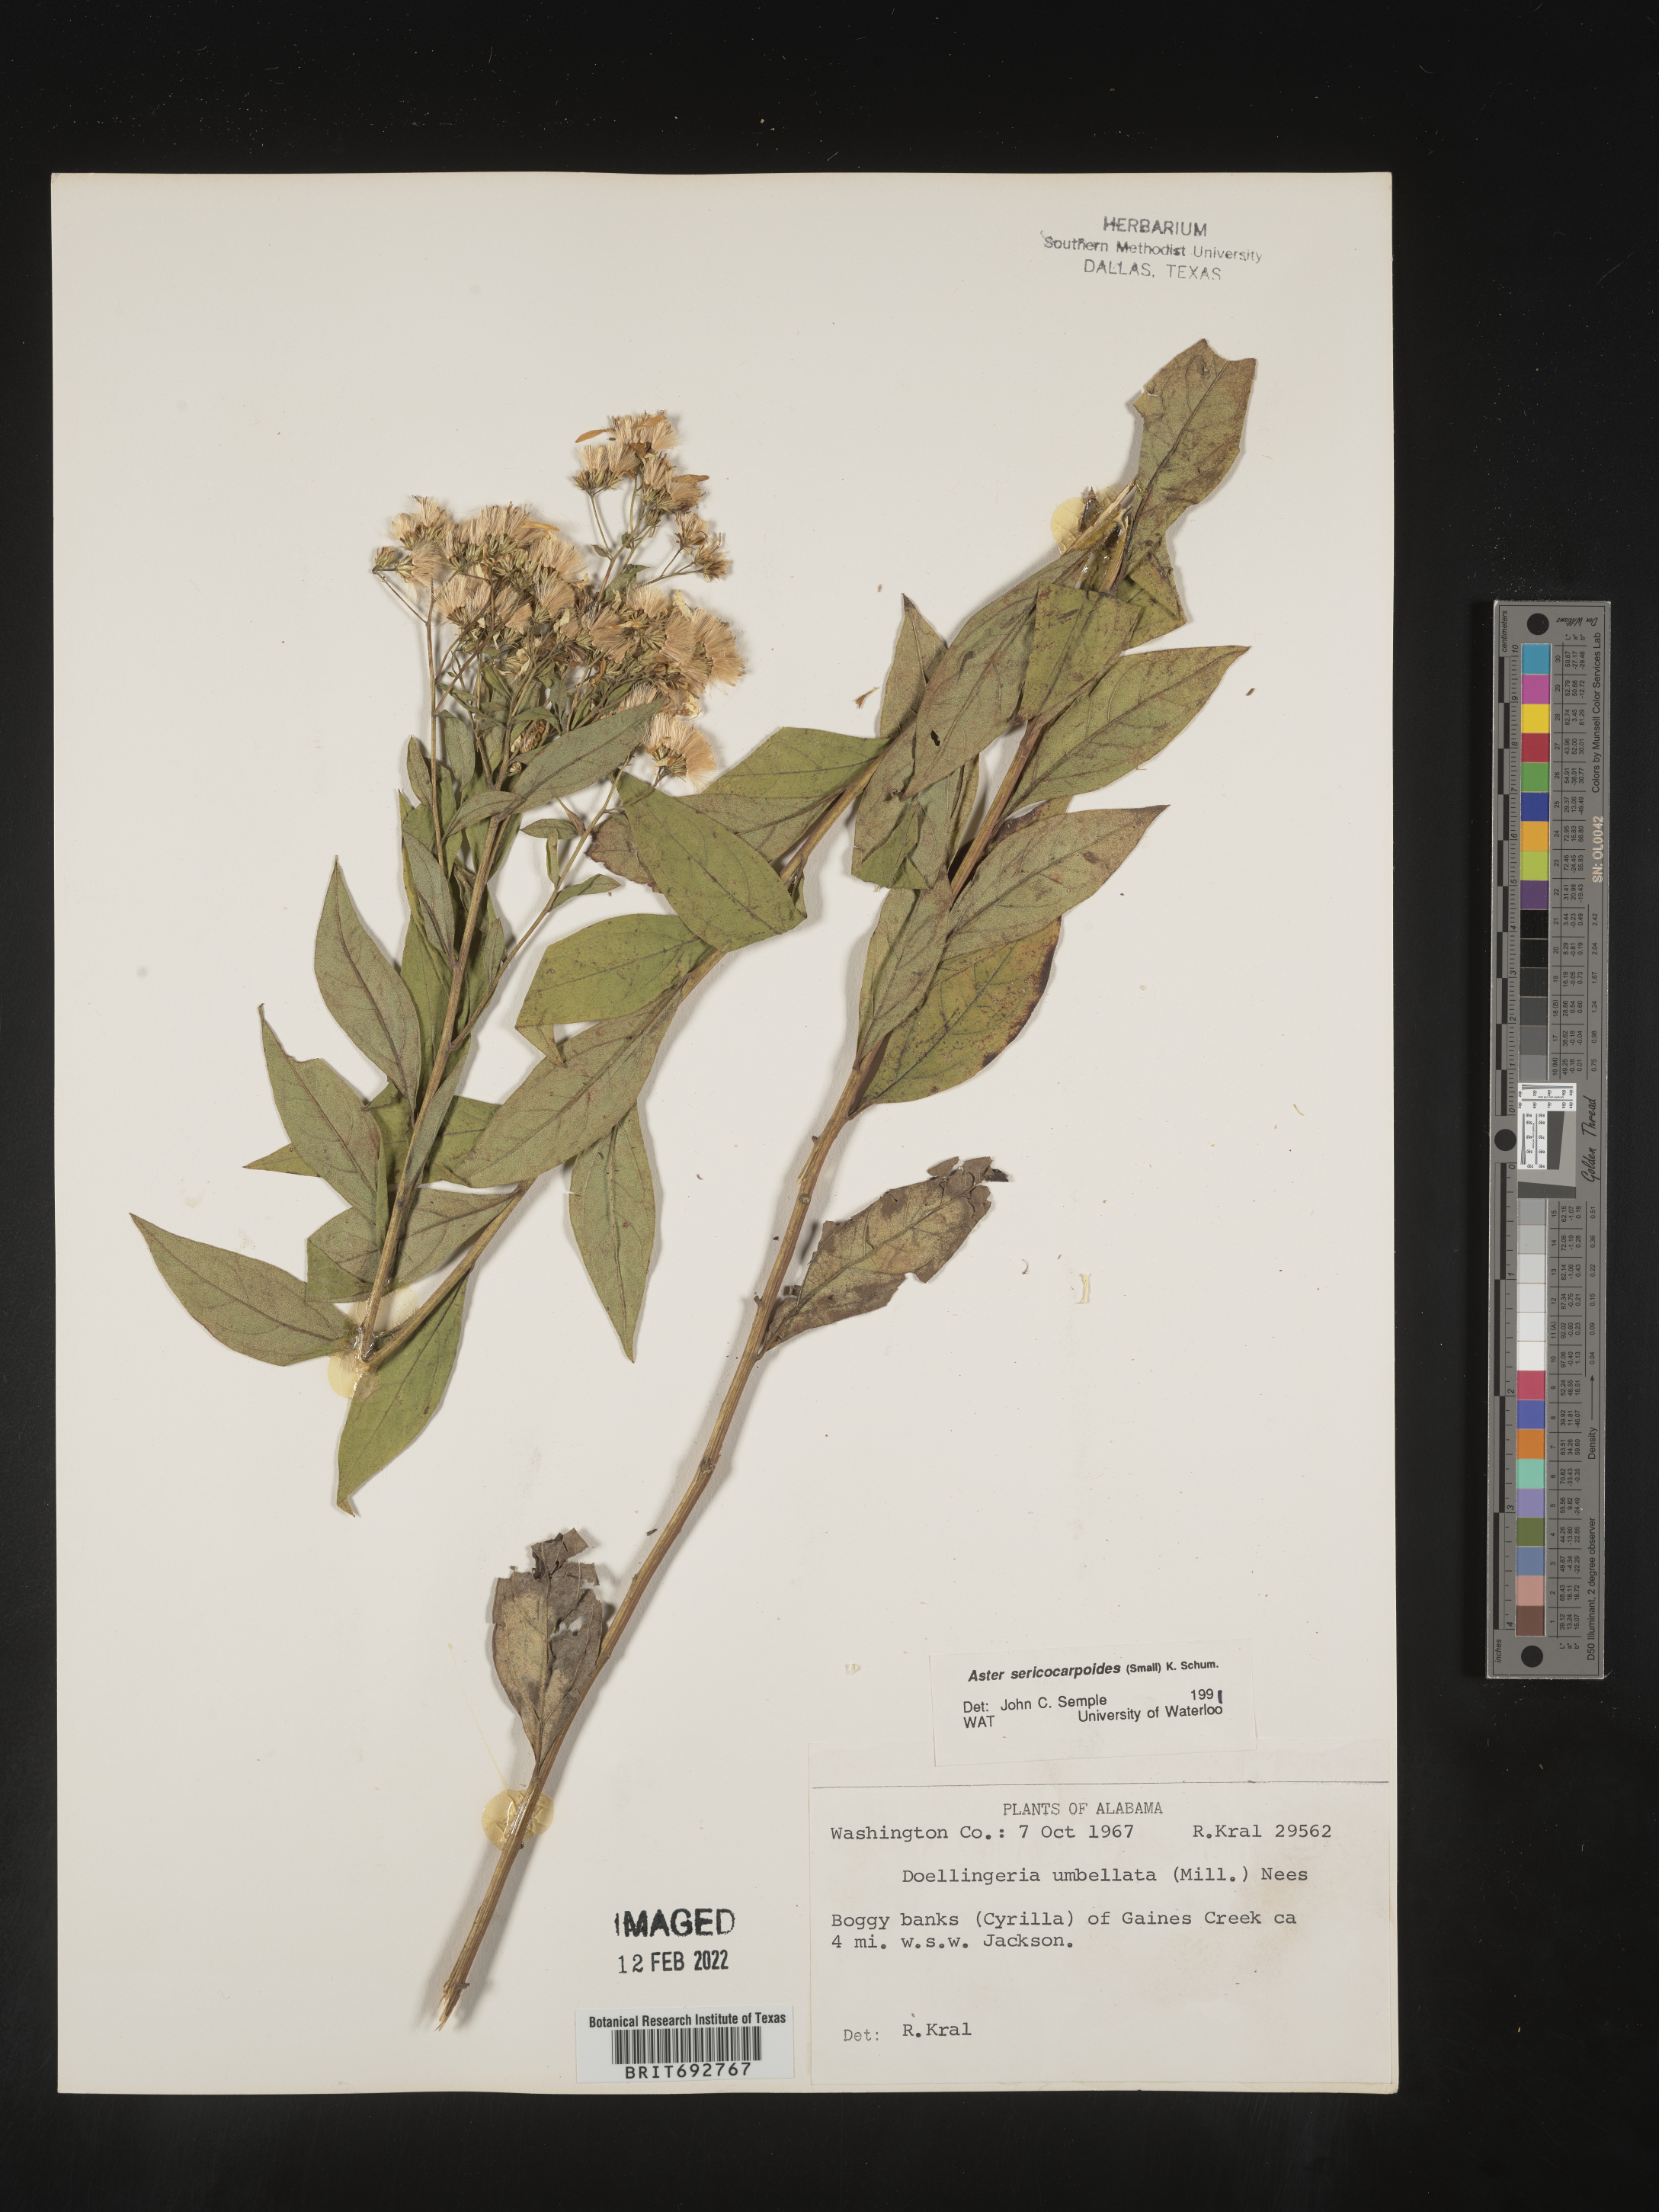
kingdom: Plantae
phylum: Tracheophyta
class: Magnoliopsida
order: Asterales
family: Asteraceae
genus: Doellingeria
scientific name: Doellingeria sericocarpoides
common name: Southern tall flat-top aster
